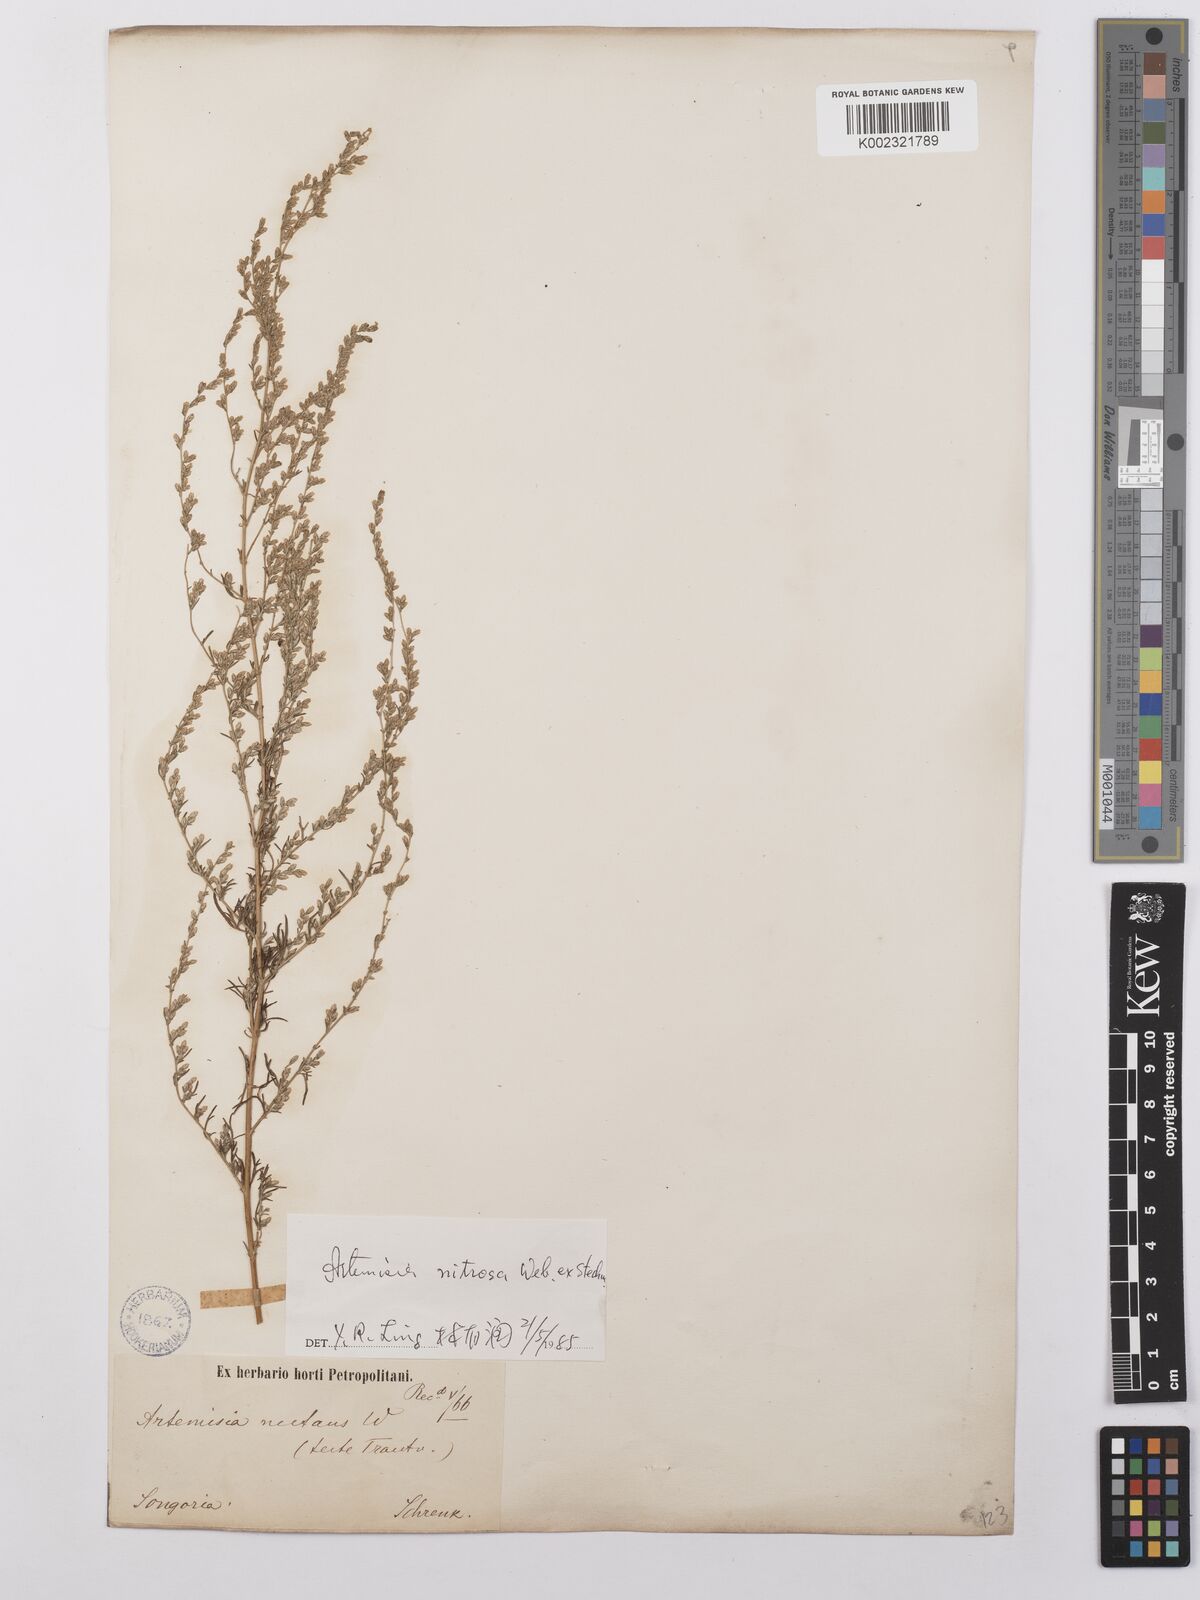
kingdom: Plantae
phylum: Tracheophyta
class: Magnoliopsida
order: Asterales
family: Asteraceae
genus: Artemisia
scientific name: Artemisia nitrosa
